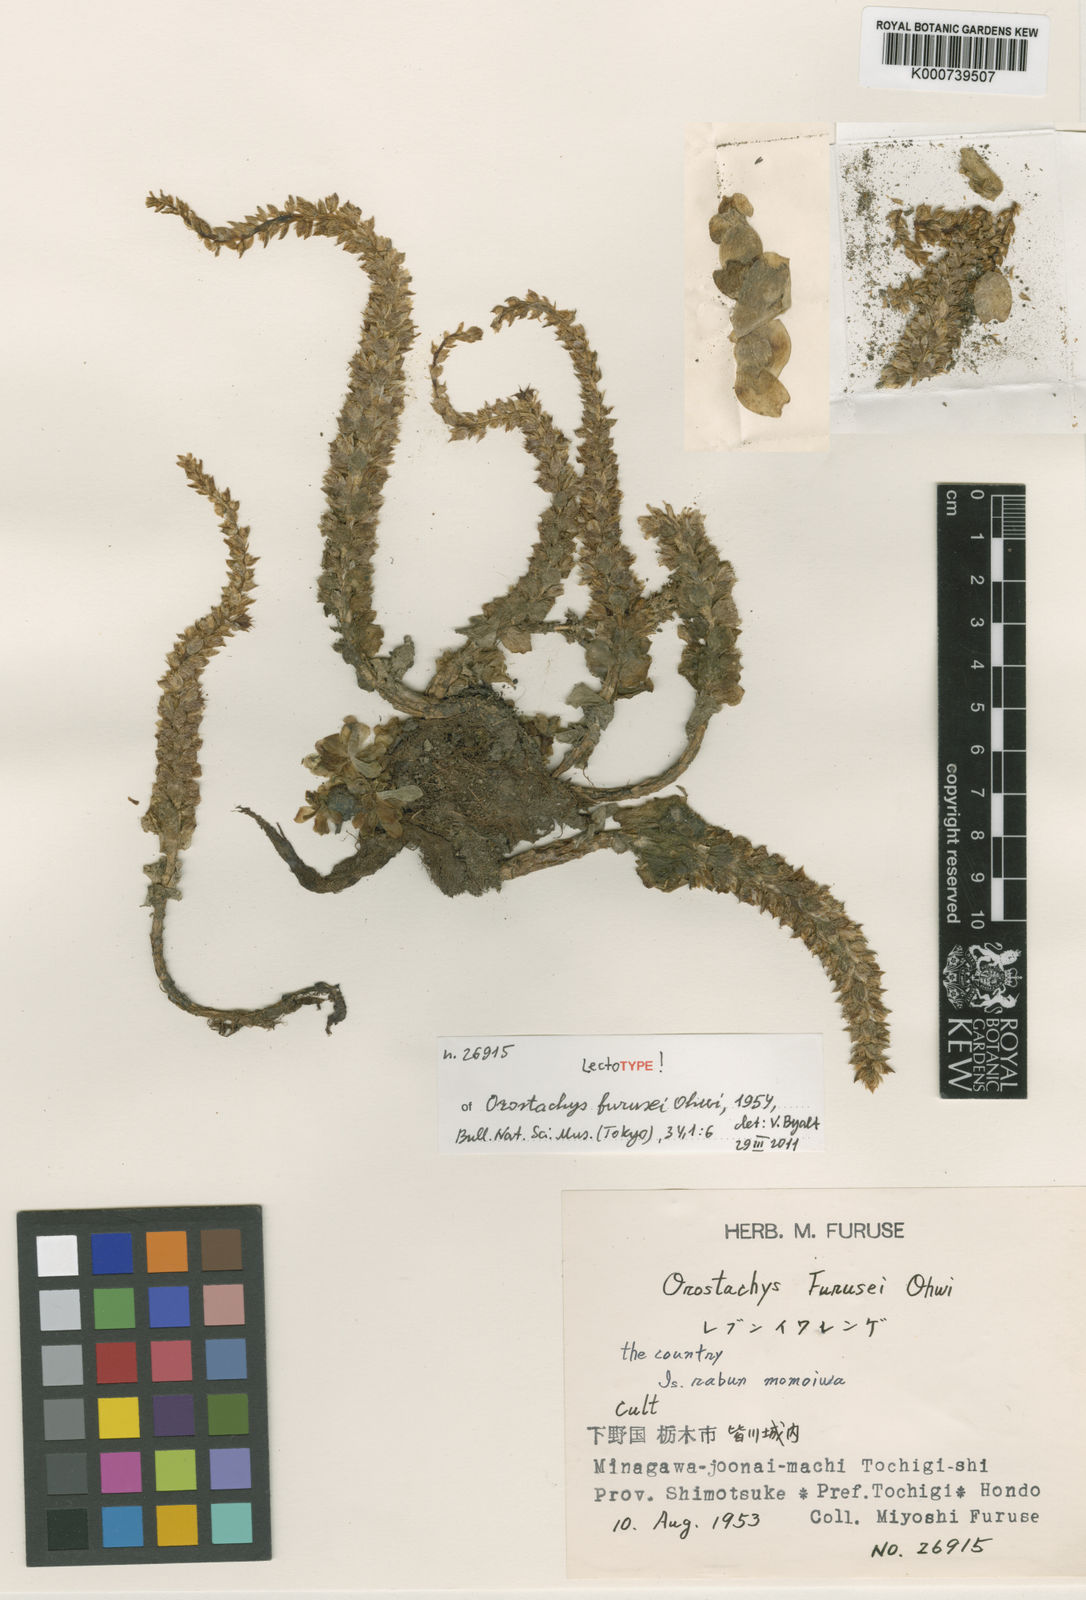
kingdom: Plantae
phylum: Tracheophyta
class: Magnoliopsida
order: Saxifragales
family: Crassulaceae
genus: Orostachys
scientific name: Orostachys boehmeri
